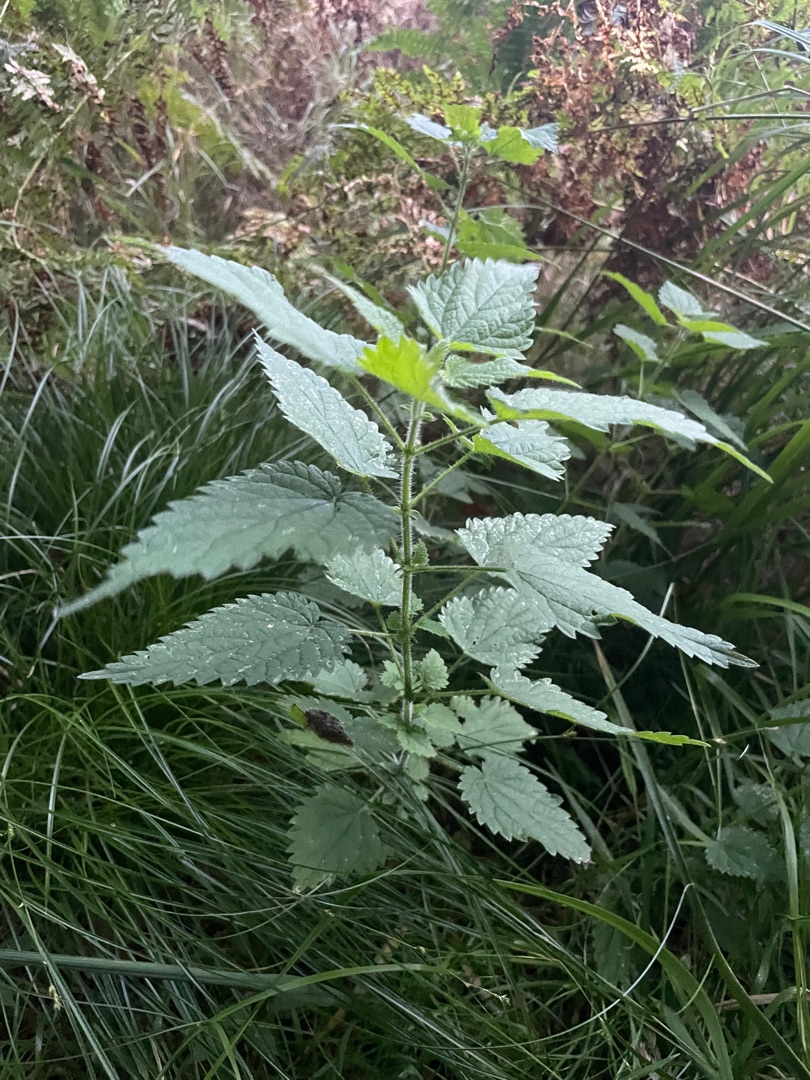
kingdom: Plantae
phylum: Tracheophyta
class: Magnoliopsida
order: Rosales
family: Urticaceae
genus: Urtica
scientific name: Urtica dioica
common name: Stor nælde
